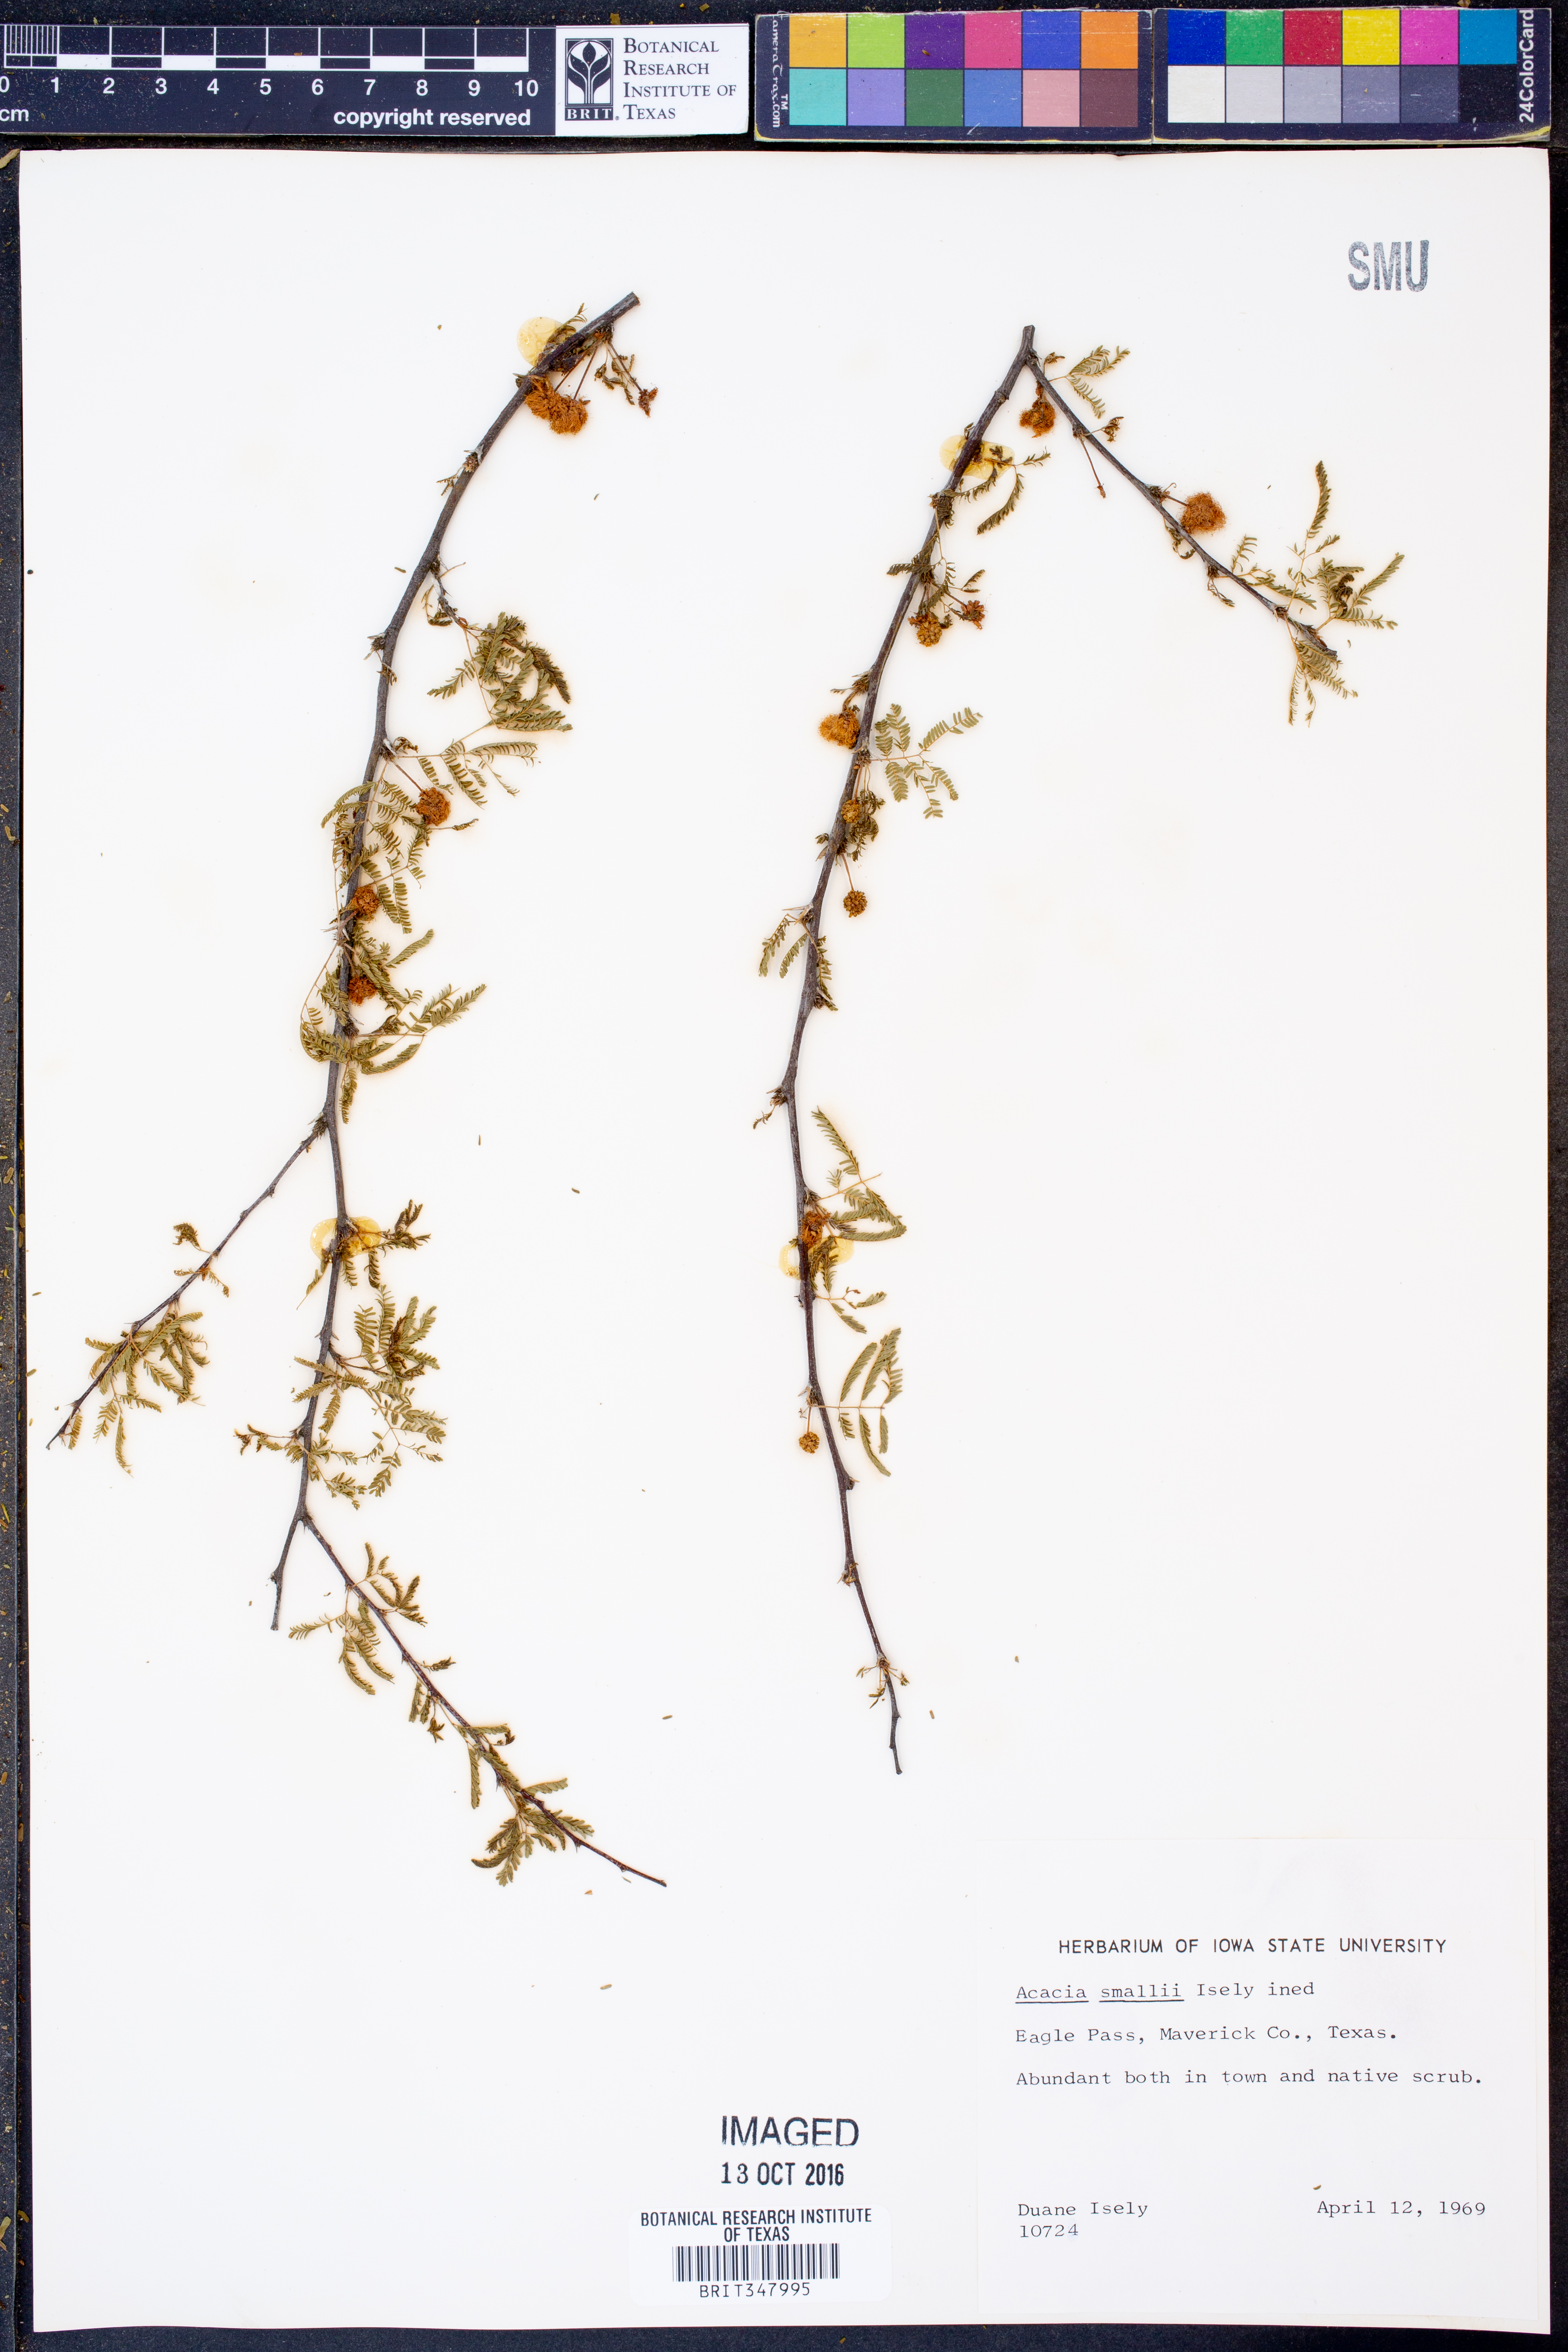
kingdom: Plantae
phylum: Tracheophyta
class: Magnoliopsida
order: Fabales
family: Fabaceae
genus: Vachellia
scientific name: Vachellia farnesiana
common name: Sweet acacia
